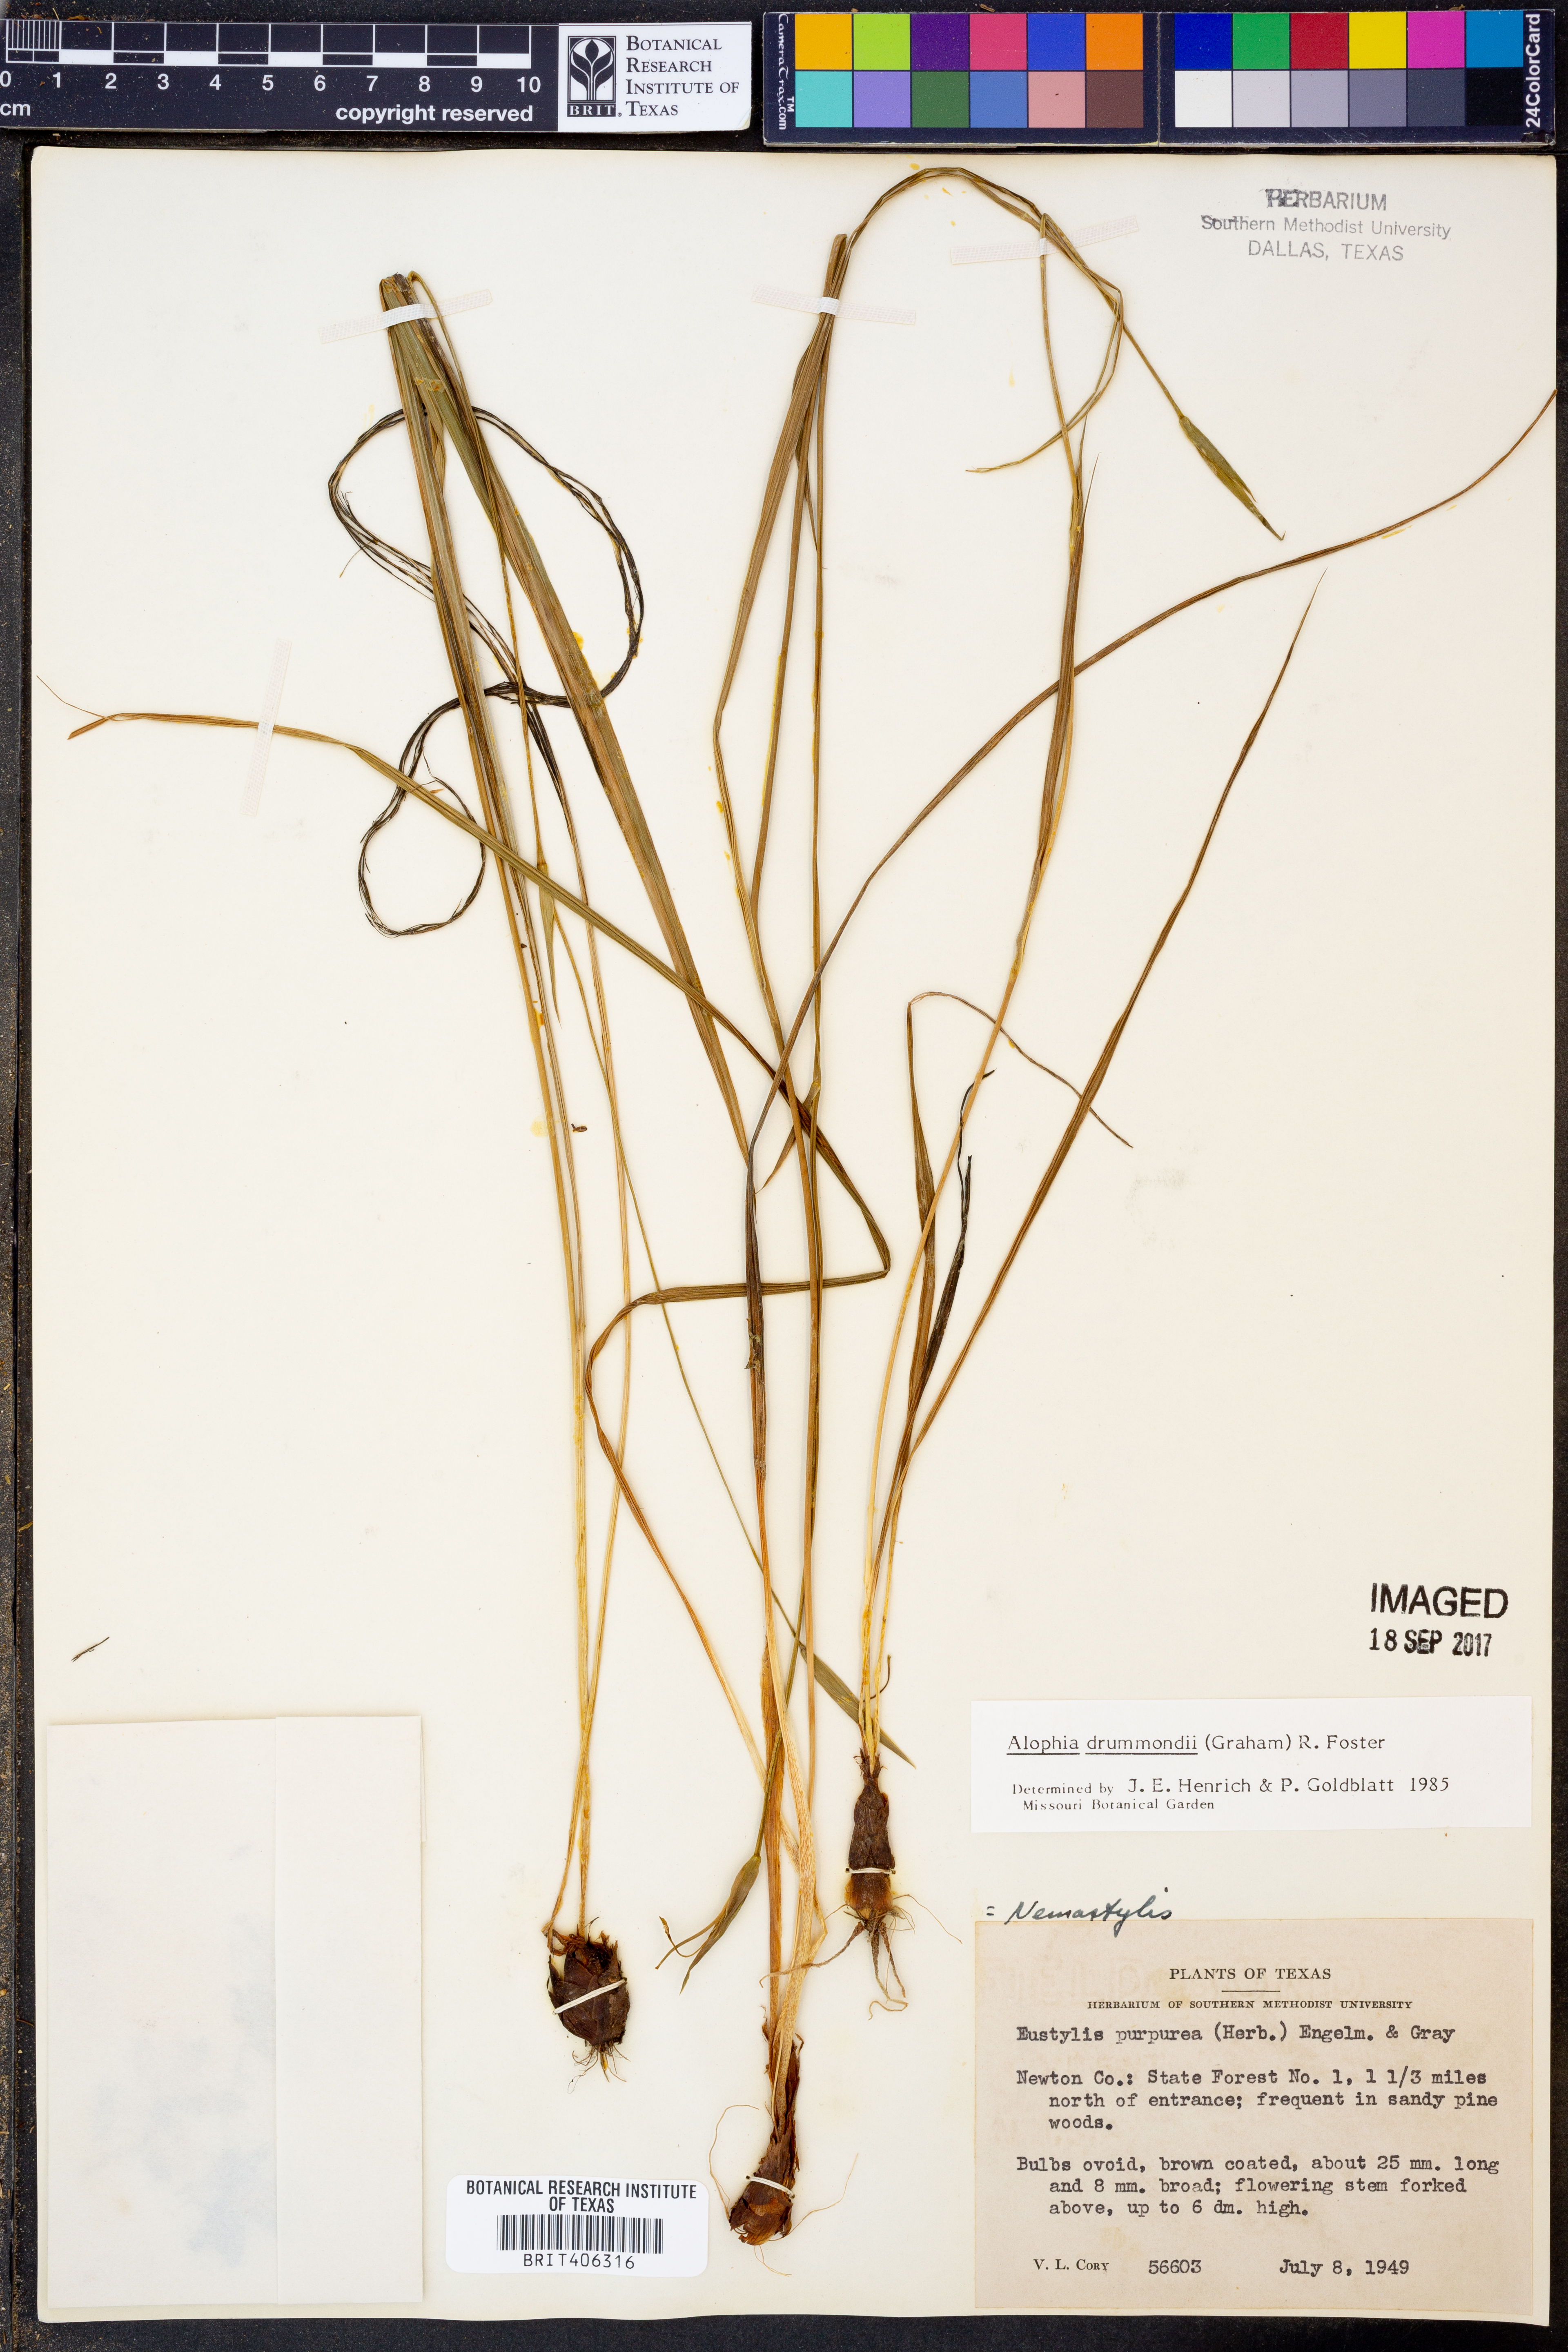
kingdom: Plantae
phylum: Tracheophyta
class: Liliopsida
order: Asparagales
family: Iridaceae
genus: Alophia
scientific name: Alophia drummondii
